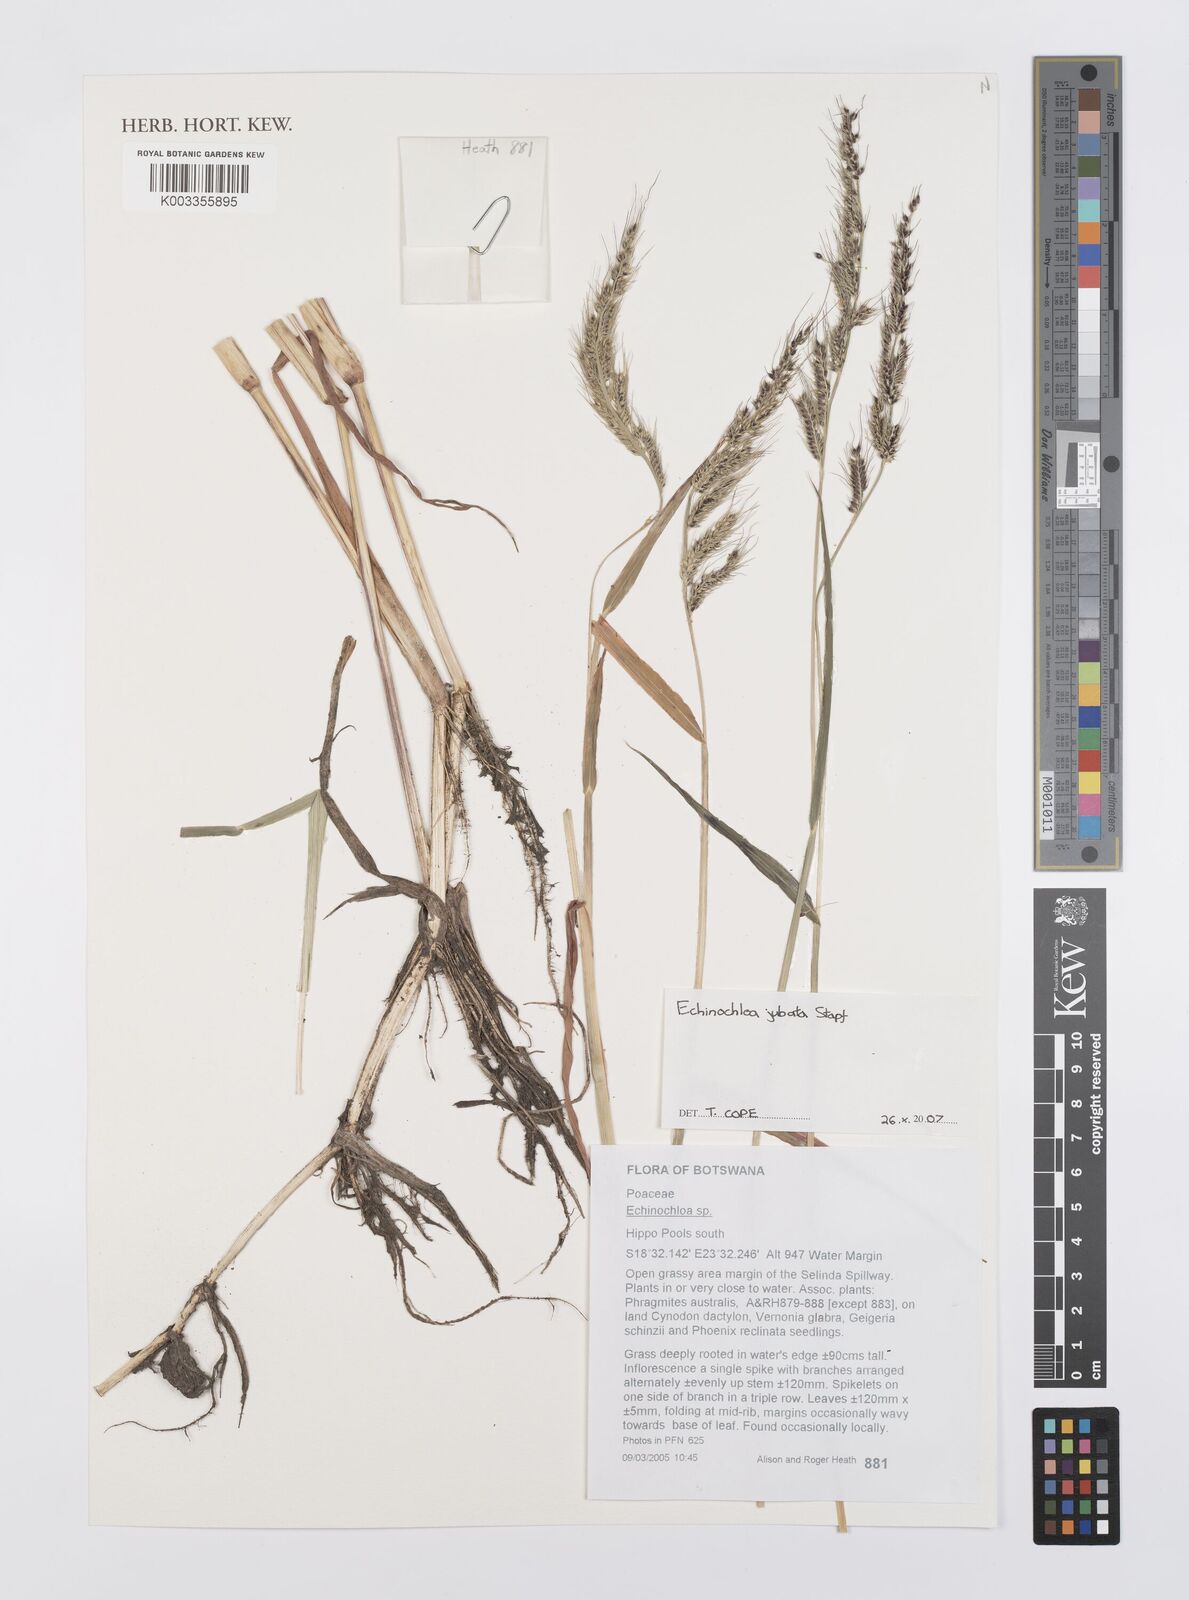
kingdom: Plantae
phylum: Tracheophyta
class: Liliopsida
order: Poales
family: Poaceae
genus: Echinochloa
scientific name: Echinochloa jubata
